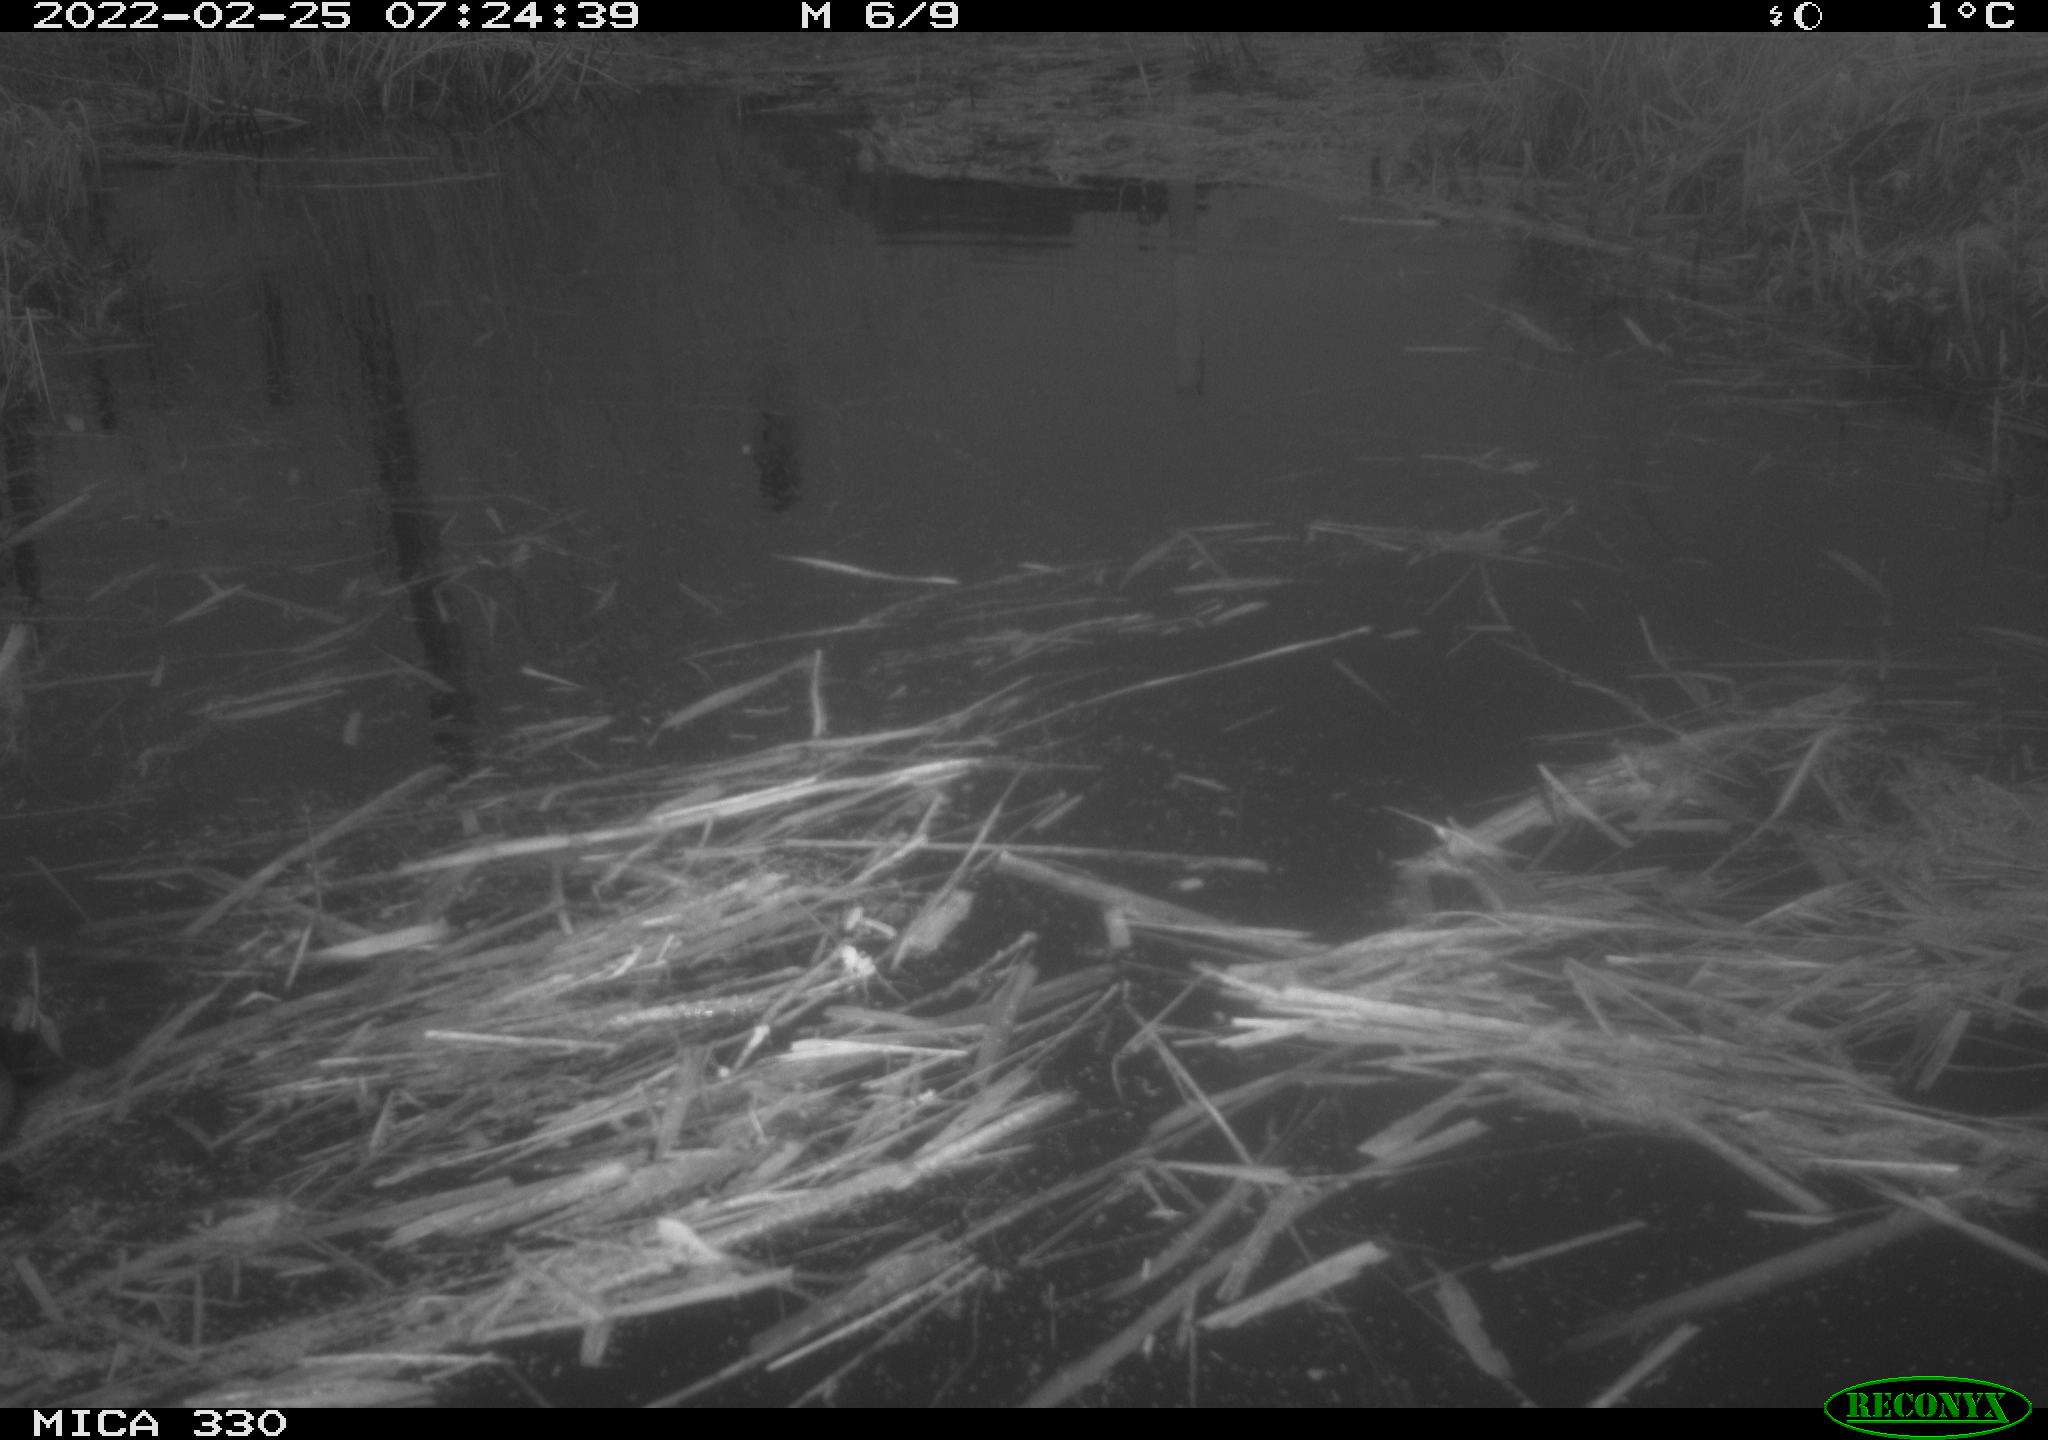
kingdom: Animalia
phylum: Chordata
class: Aves
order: Gruiformes
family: Rallidae
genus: Fulica
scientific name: Fulica atra
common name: Eurasian coot
